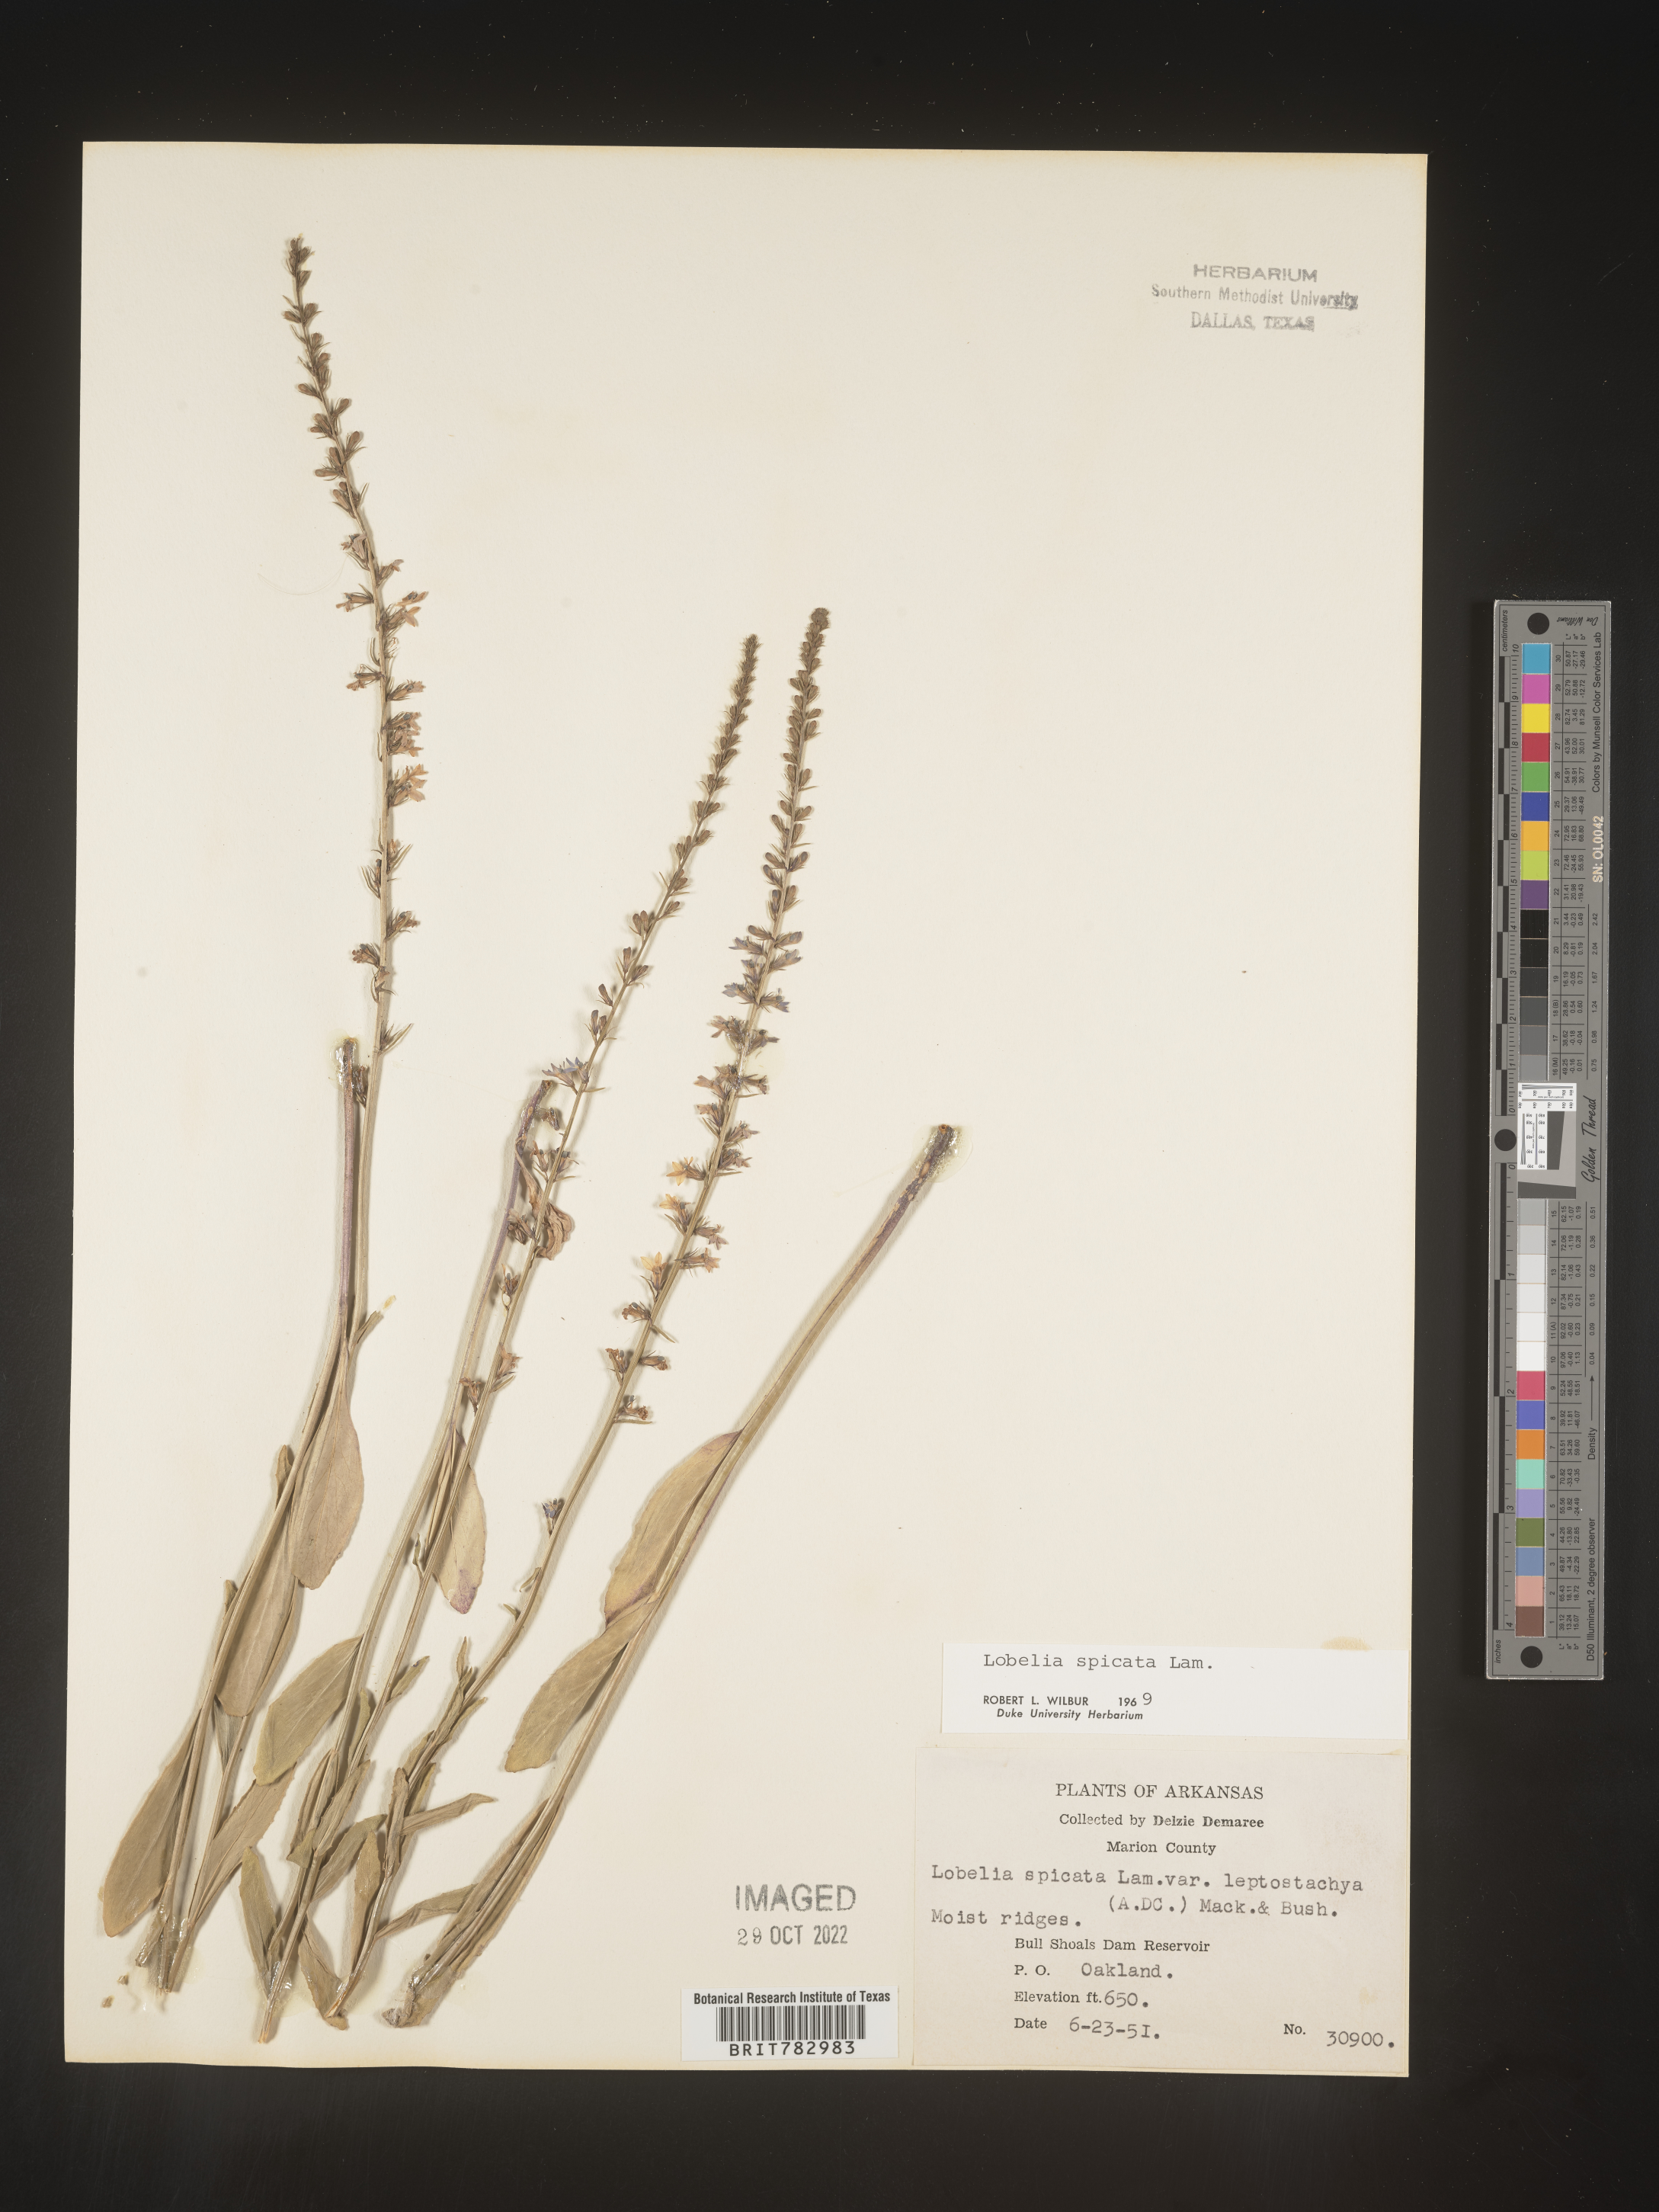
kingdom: Plantae
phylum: Tracheophyta
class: Magnoliopsida
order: Asterales
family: Campanulaceae
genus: Lobelia
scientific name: Lobelia spicata
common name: Pale-spike lobelia
